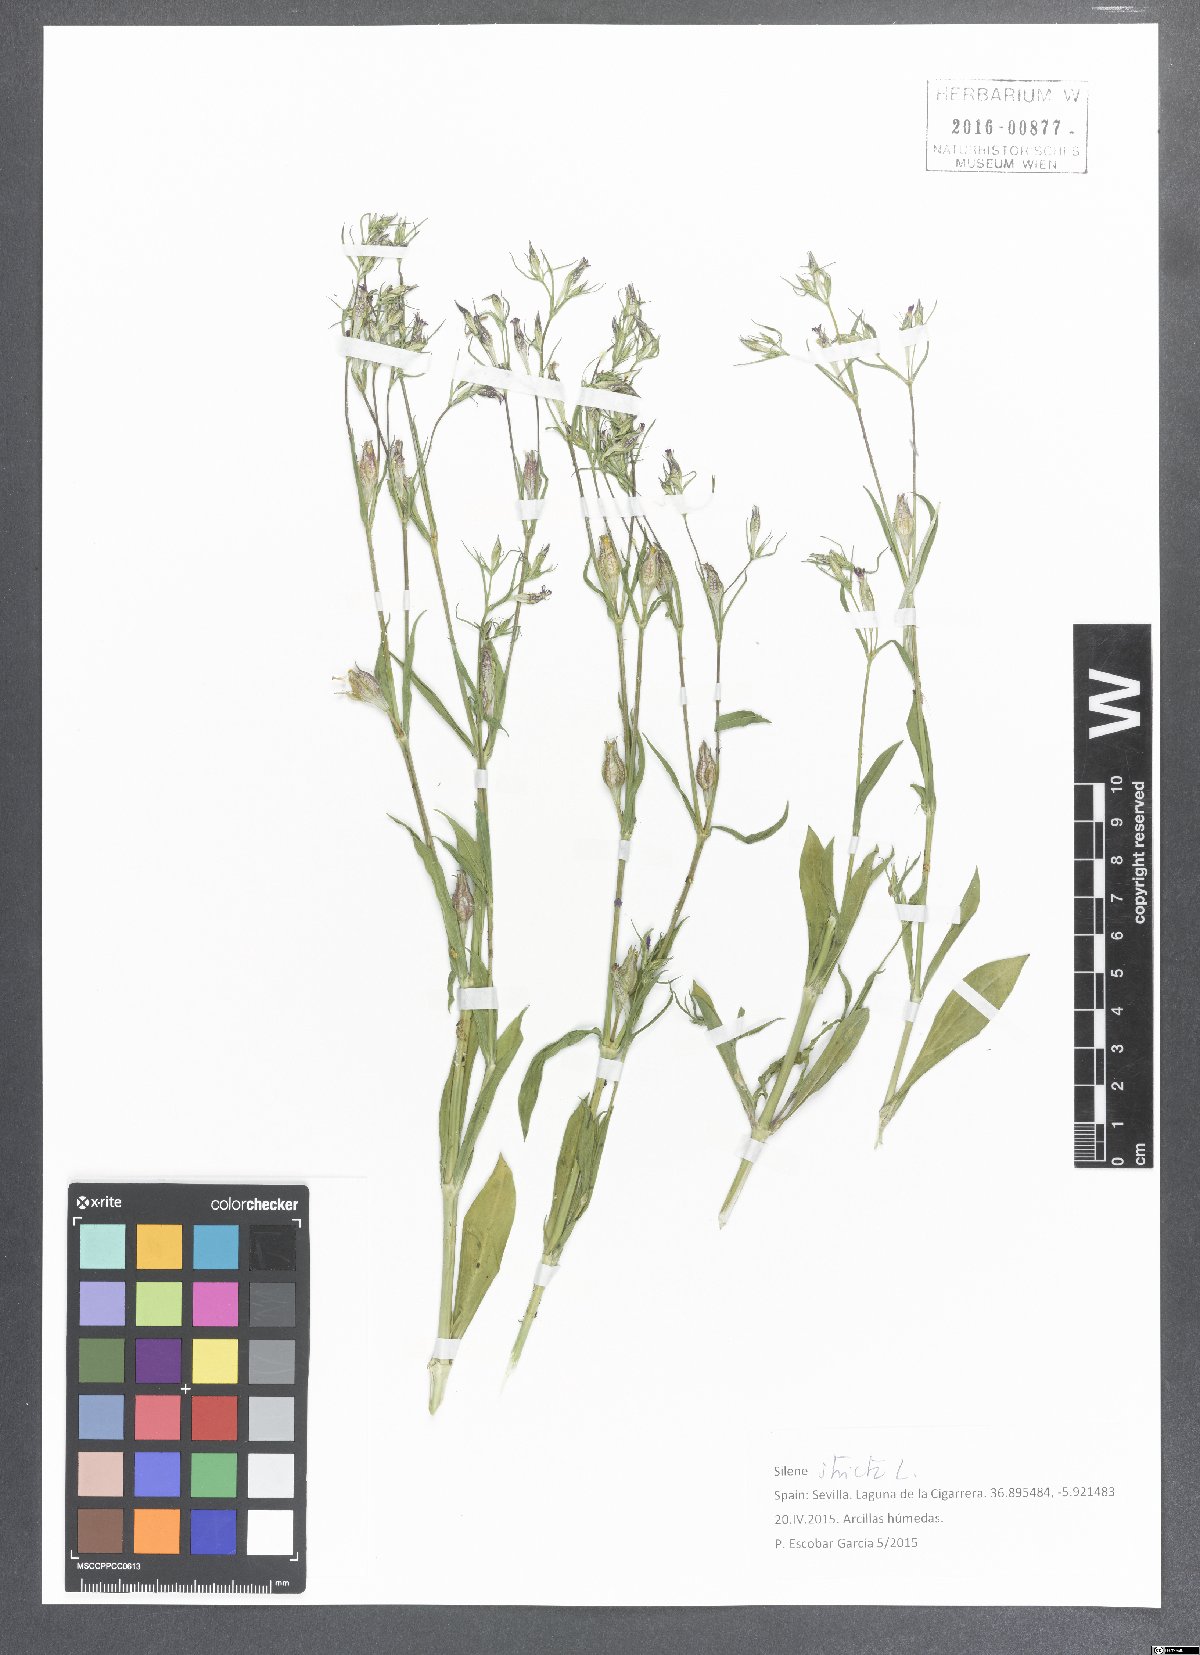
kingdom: Plantae
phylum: Tracheophyta
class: Magnoliopsida
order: Caryophyllales
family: Caryophyllaceae
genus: Silene
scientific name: Silene stricta
